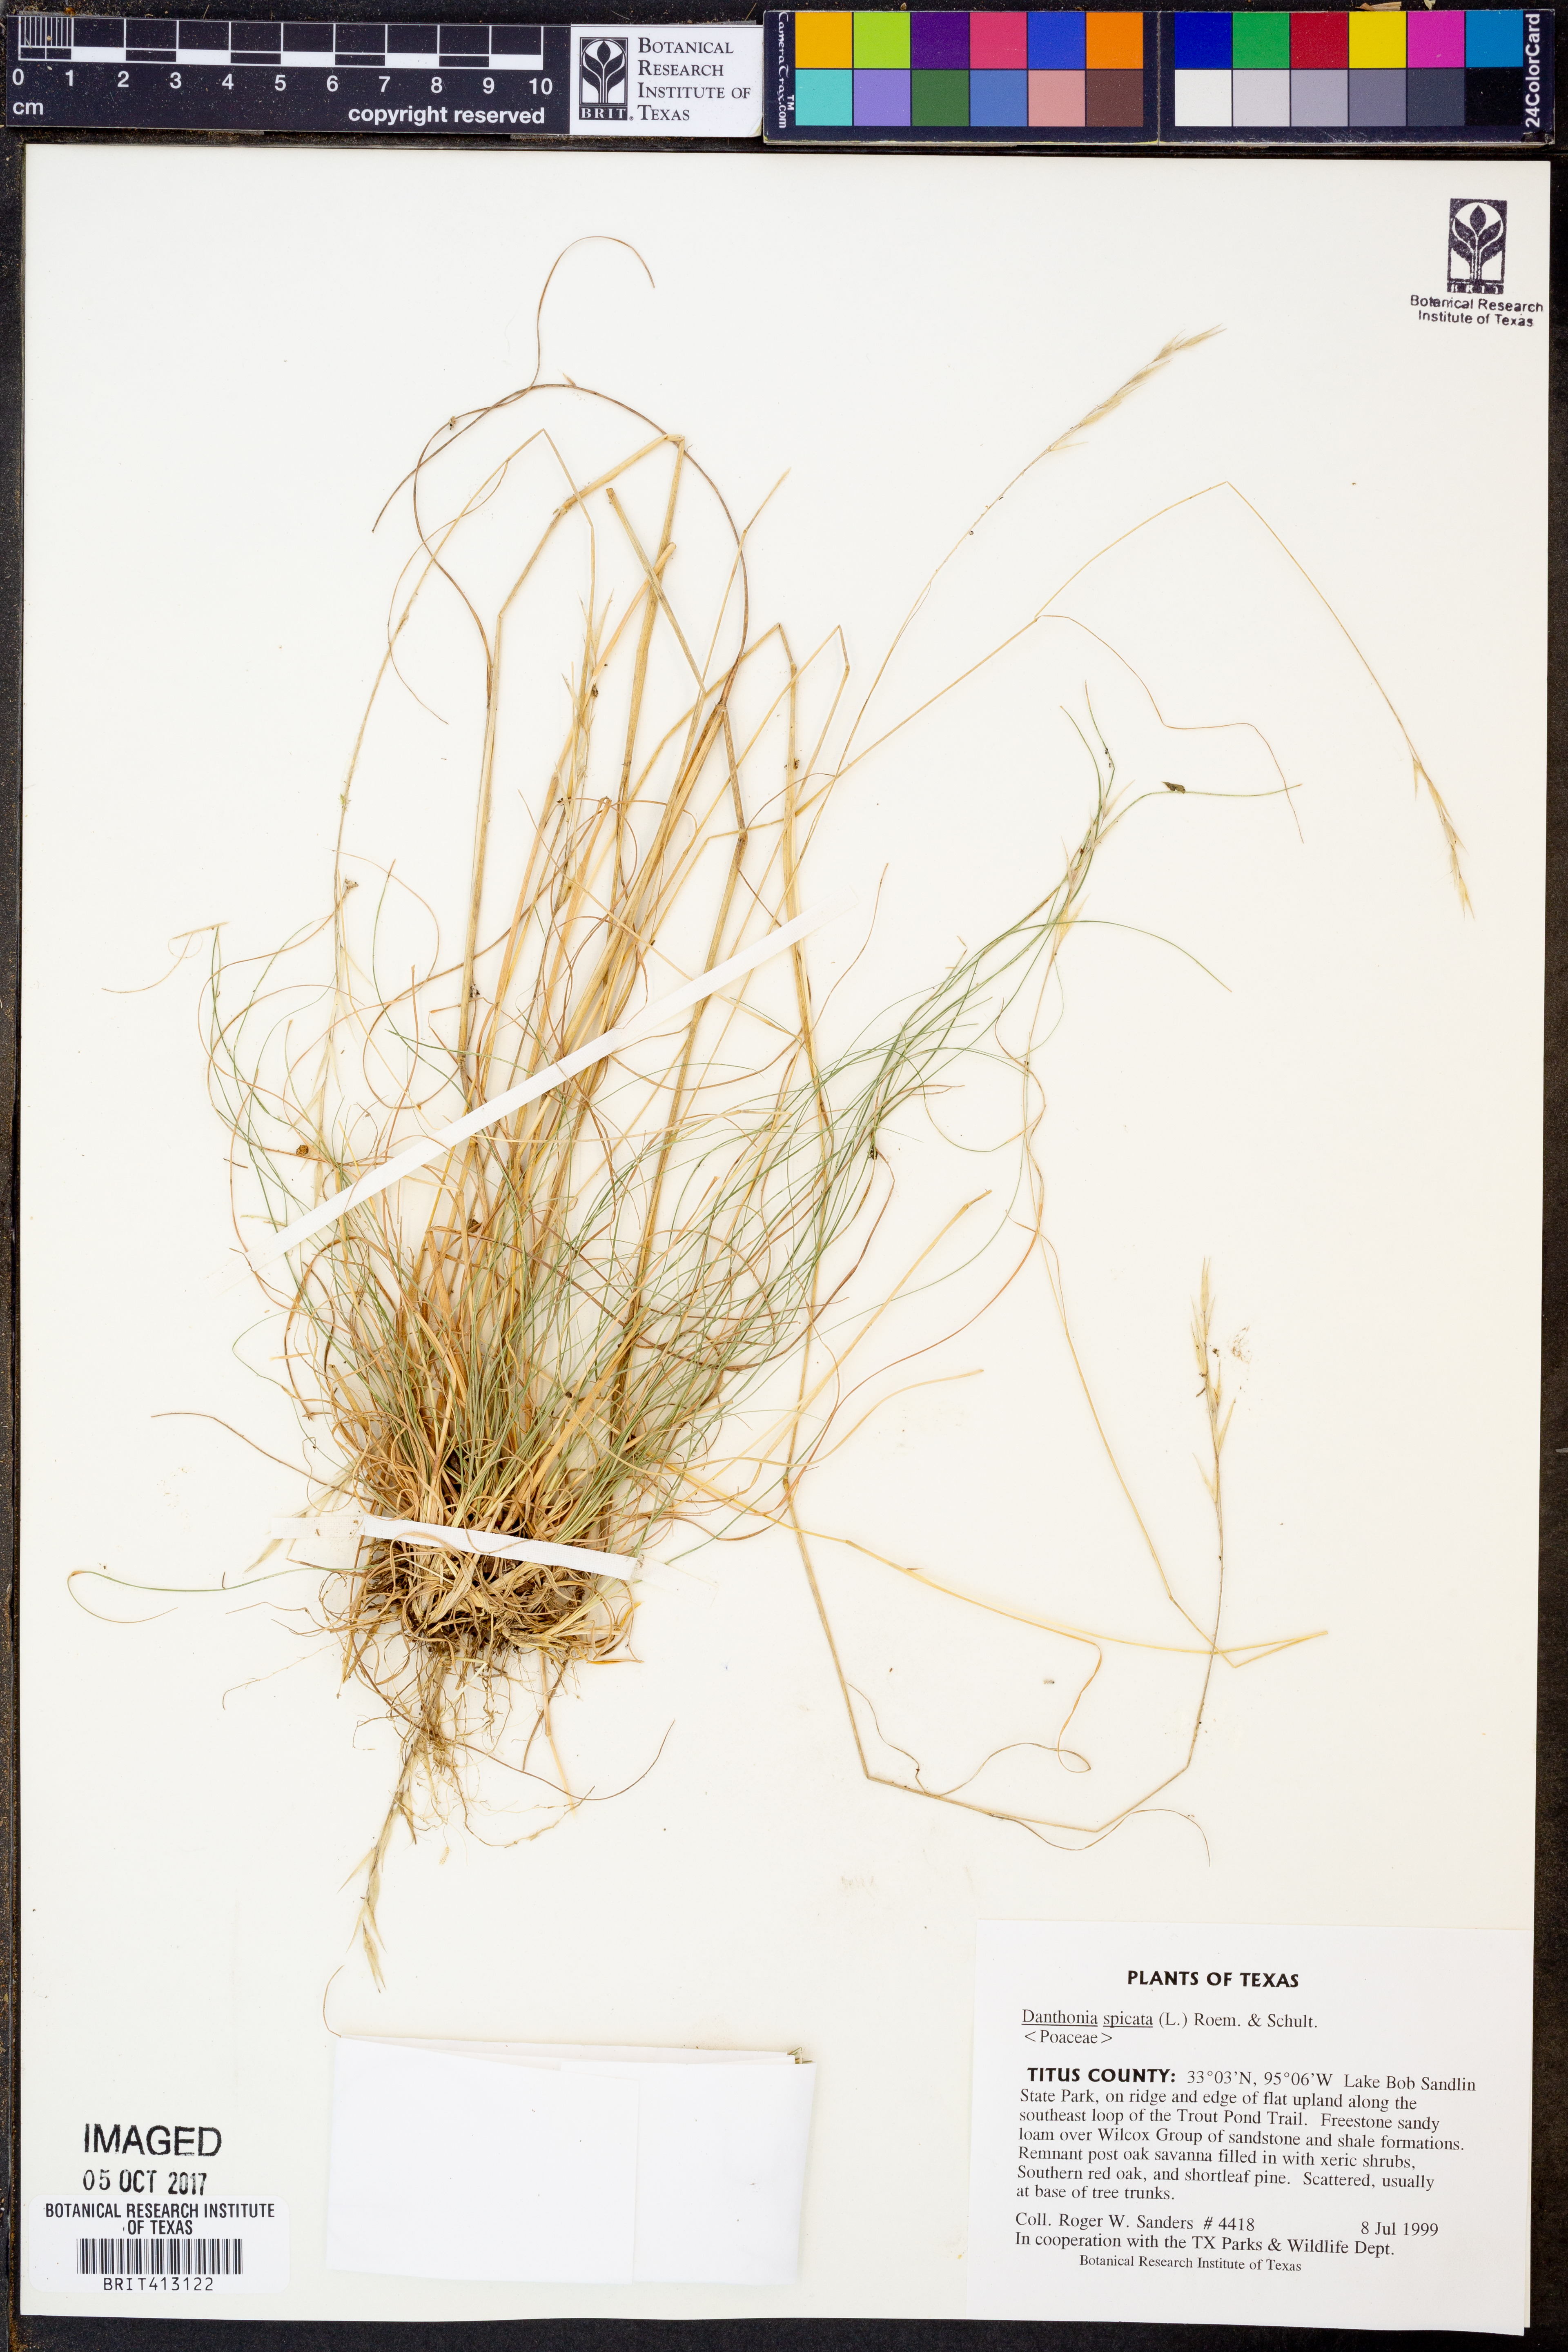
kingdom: Plantae
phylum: Tracheophyta
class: Liliopsida
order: Poales
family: Poaceae
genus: Danthonia
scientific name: Danthonia spicata
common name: Common wild oatgrass
